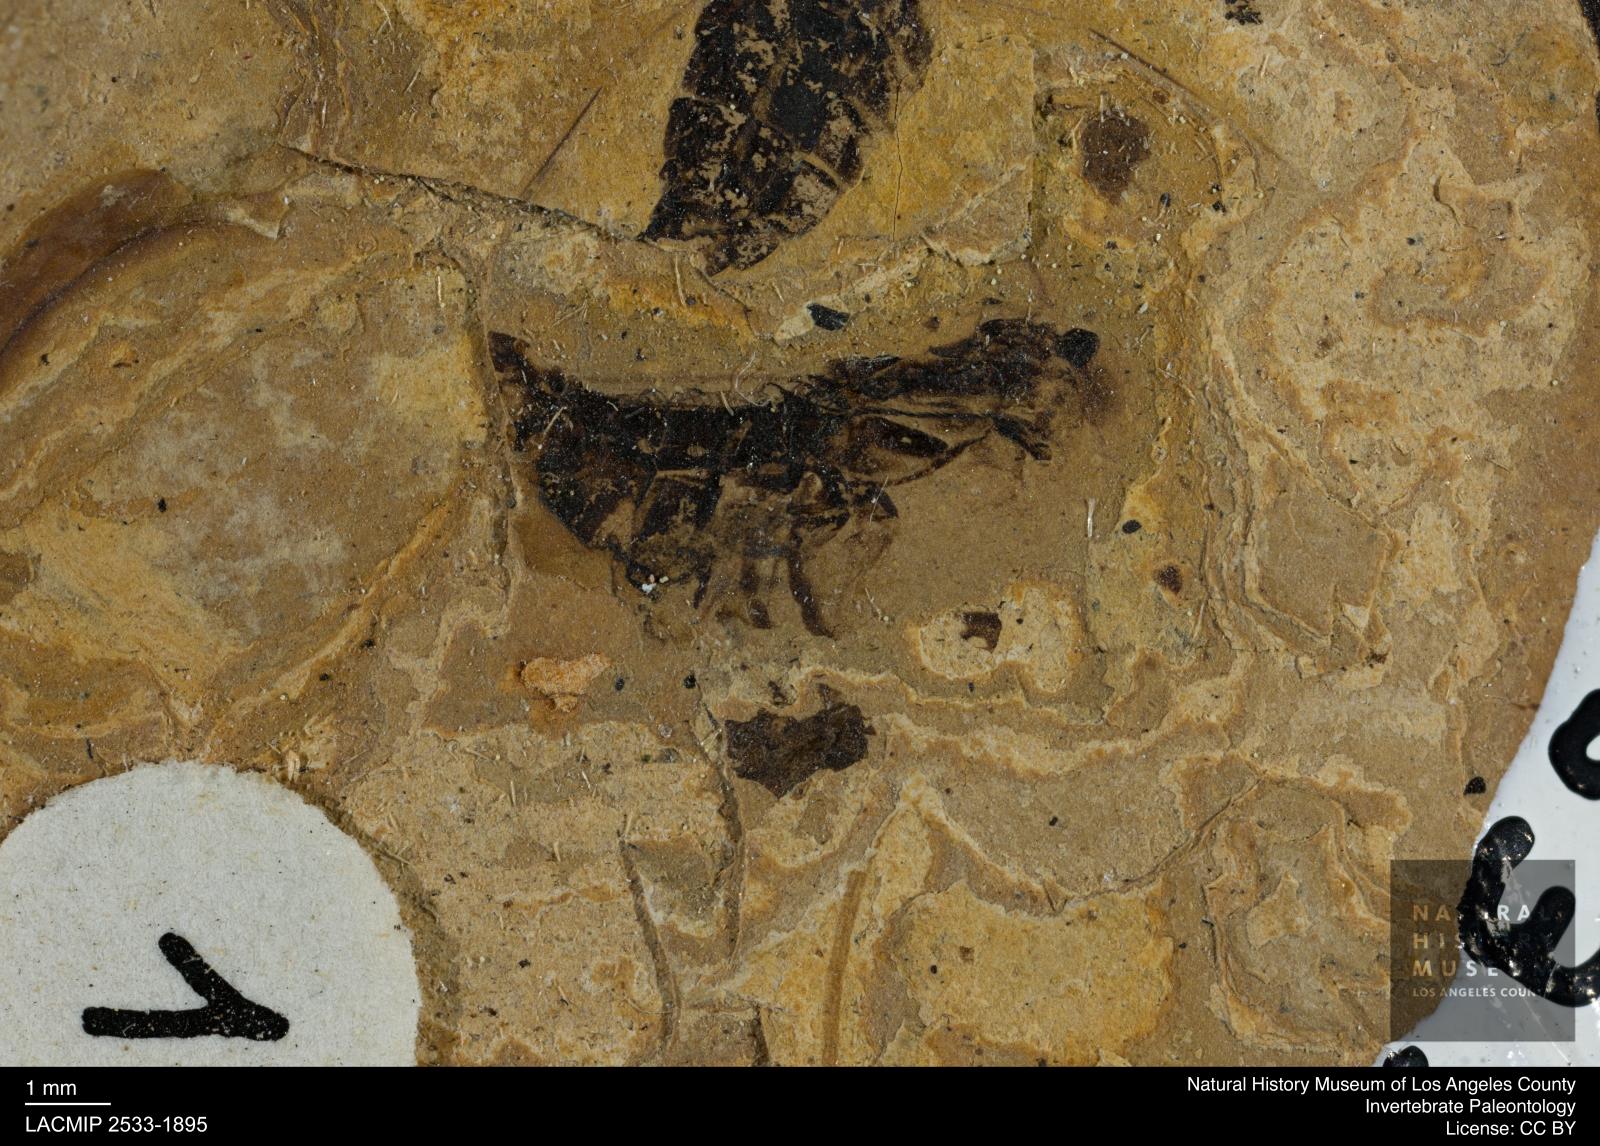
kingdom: Animalia
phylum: Arthropoda
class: Insecta
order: Hemiptera
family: Notonectidae
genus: Anisops
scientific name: Anisops Notonecta deichmuelleri
